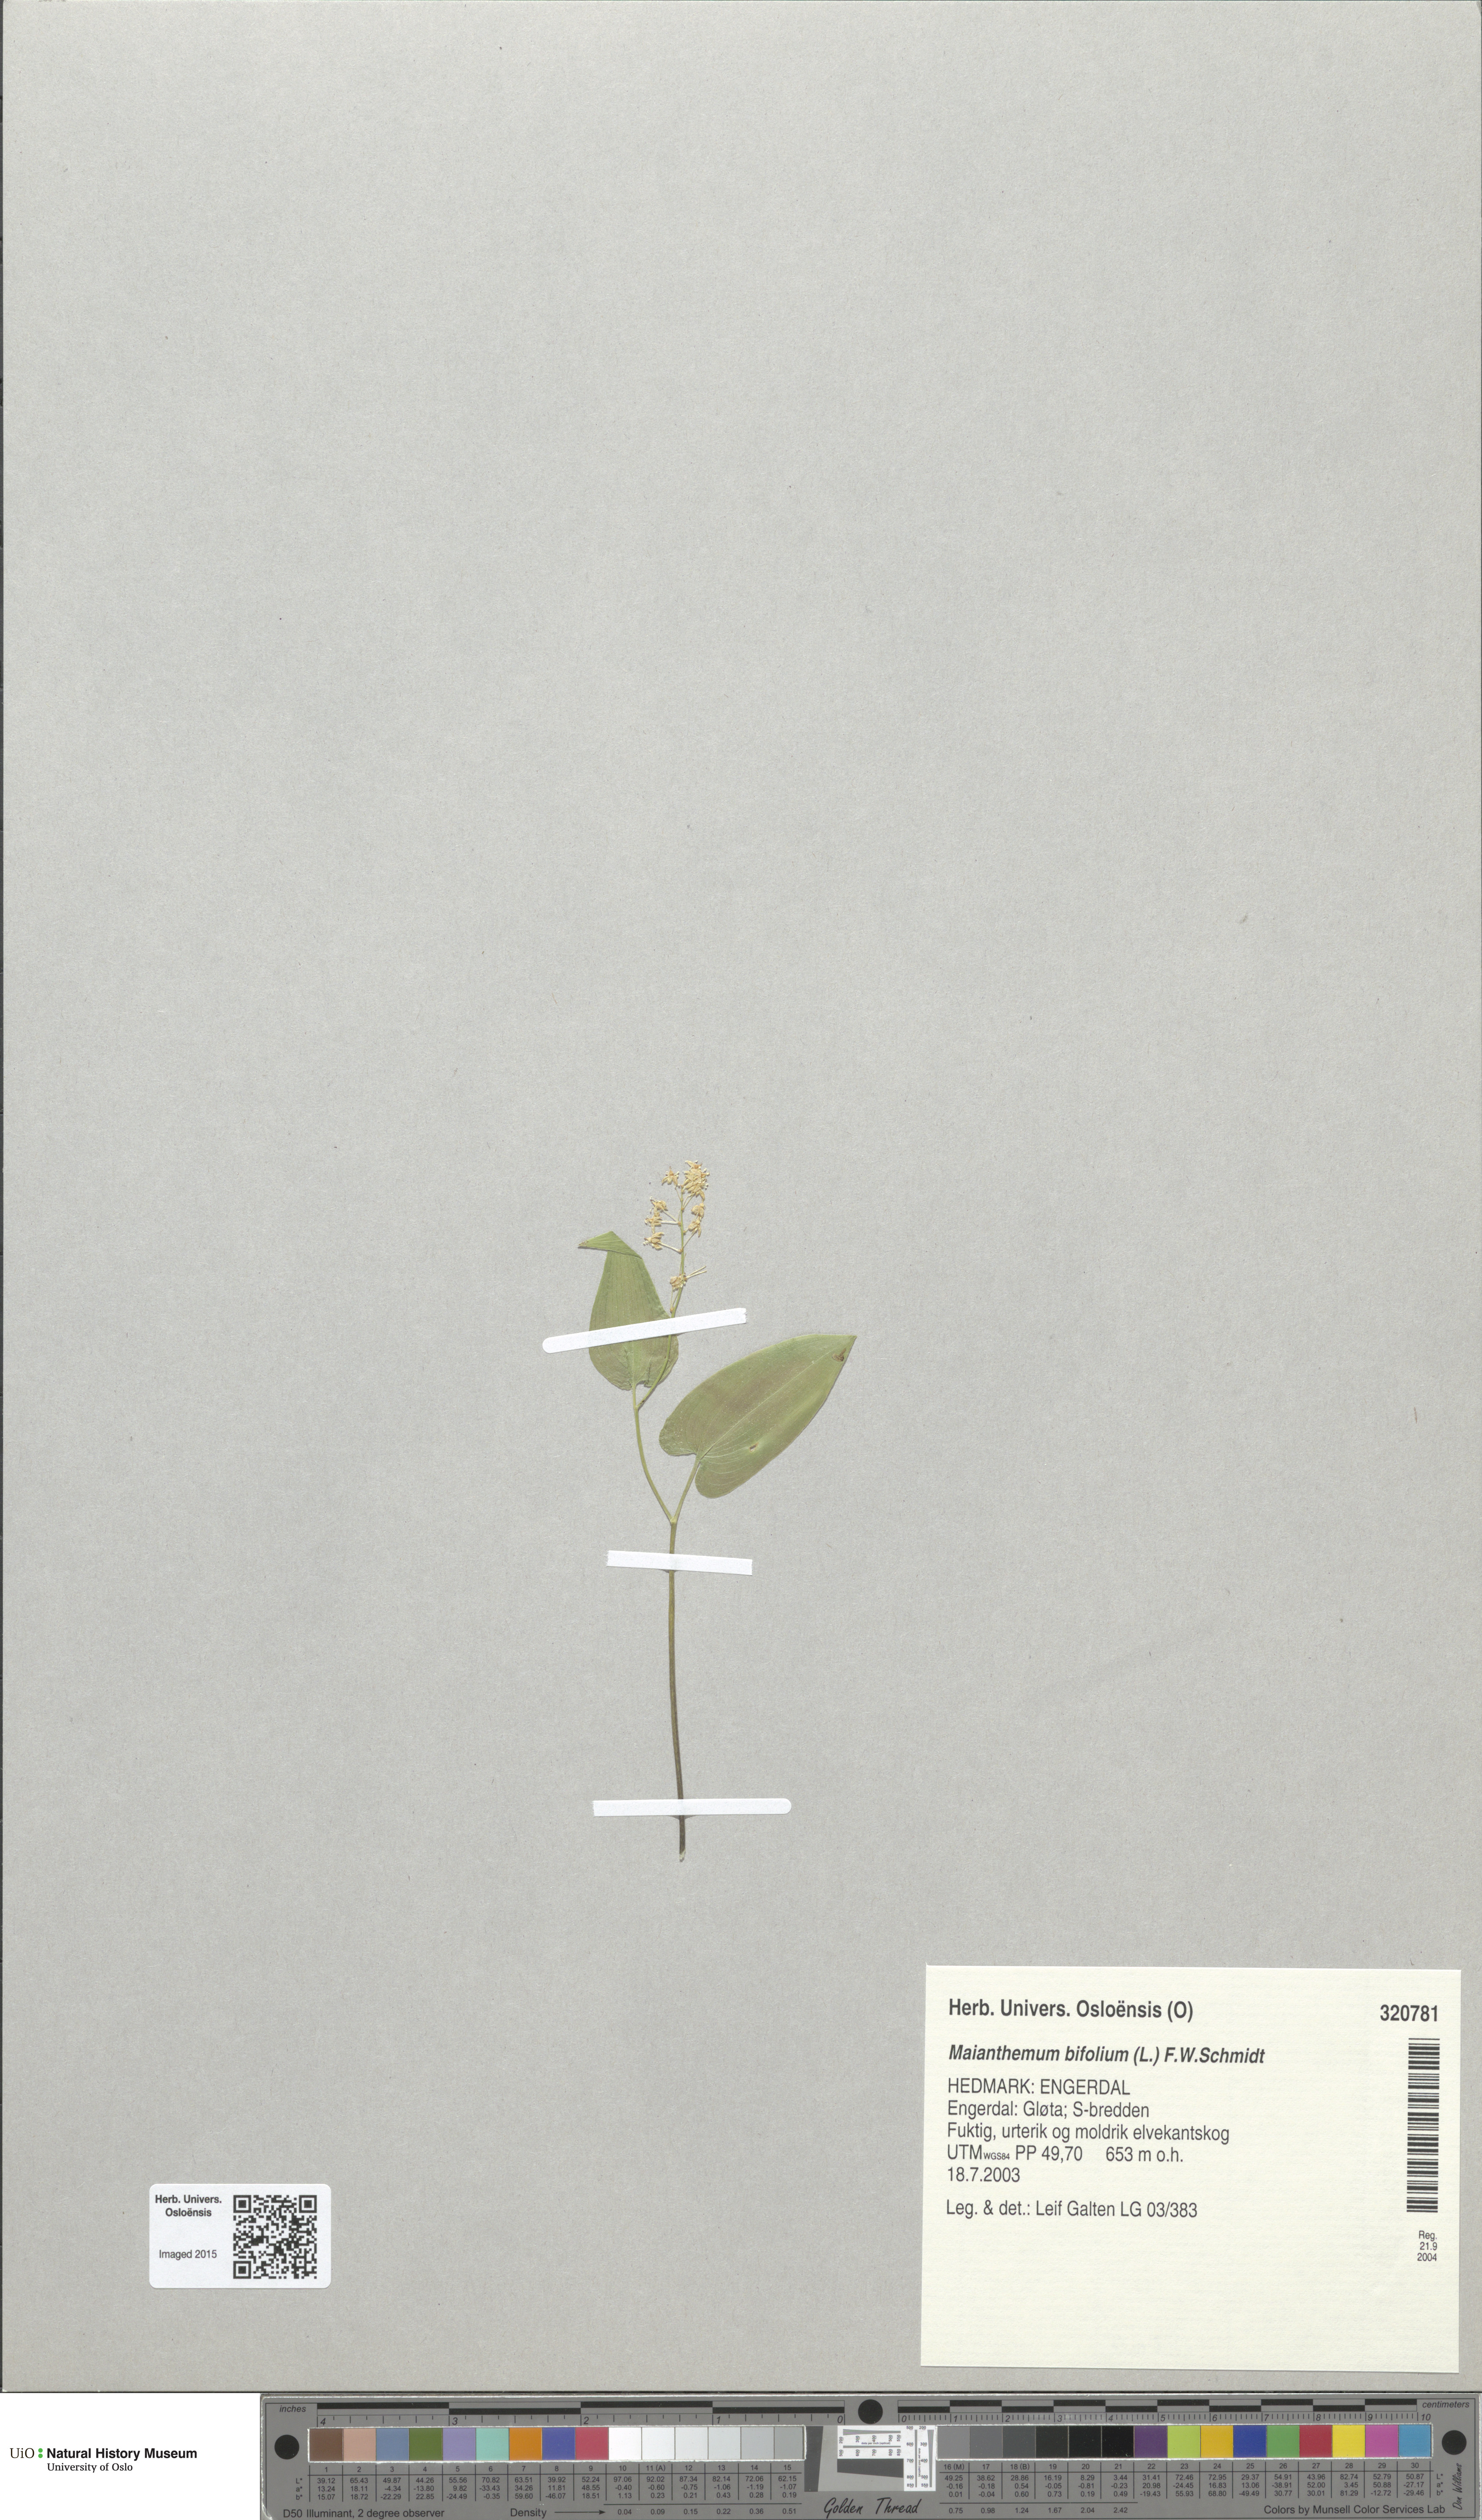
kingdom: Plantae
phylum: Tracheophyta
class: Liliopsida
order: Asparagales
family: Asparagaceae
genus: Maianthemum
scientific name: Maianthemum bifolium
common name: May lily
